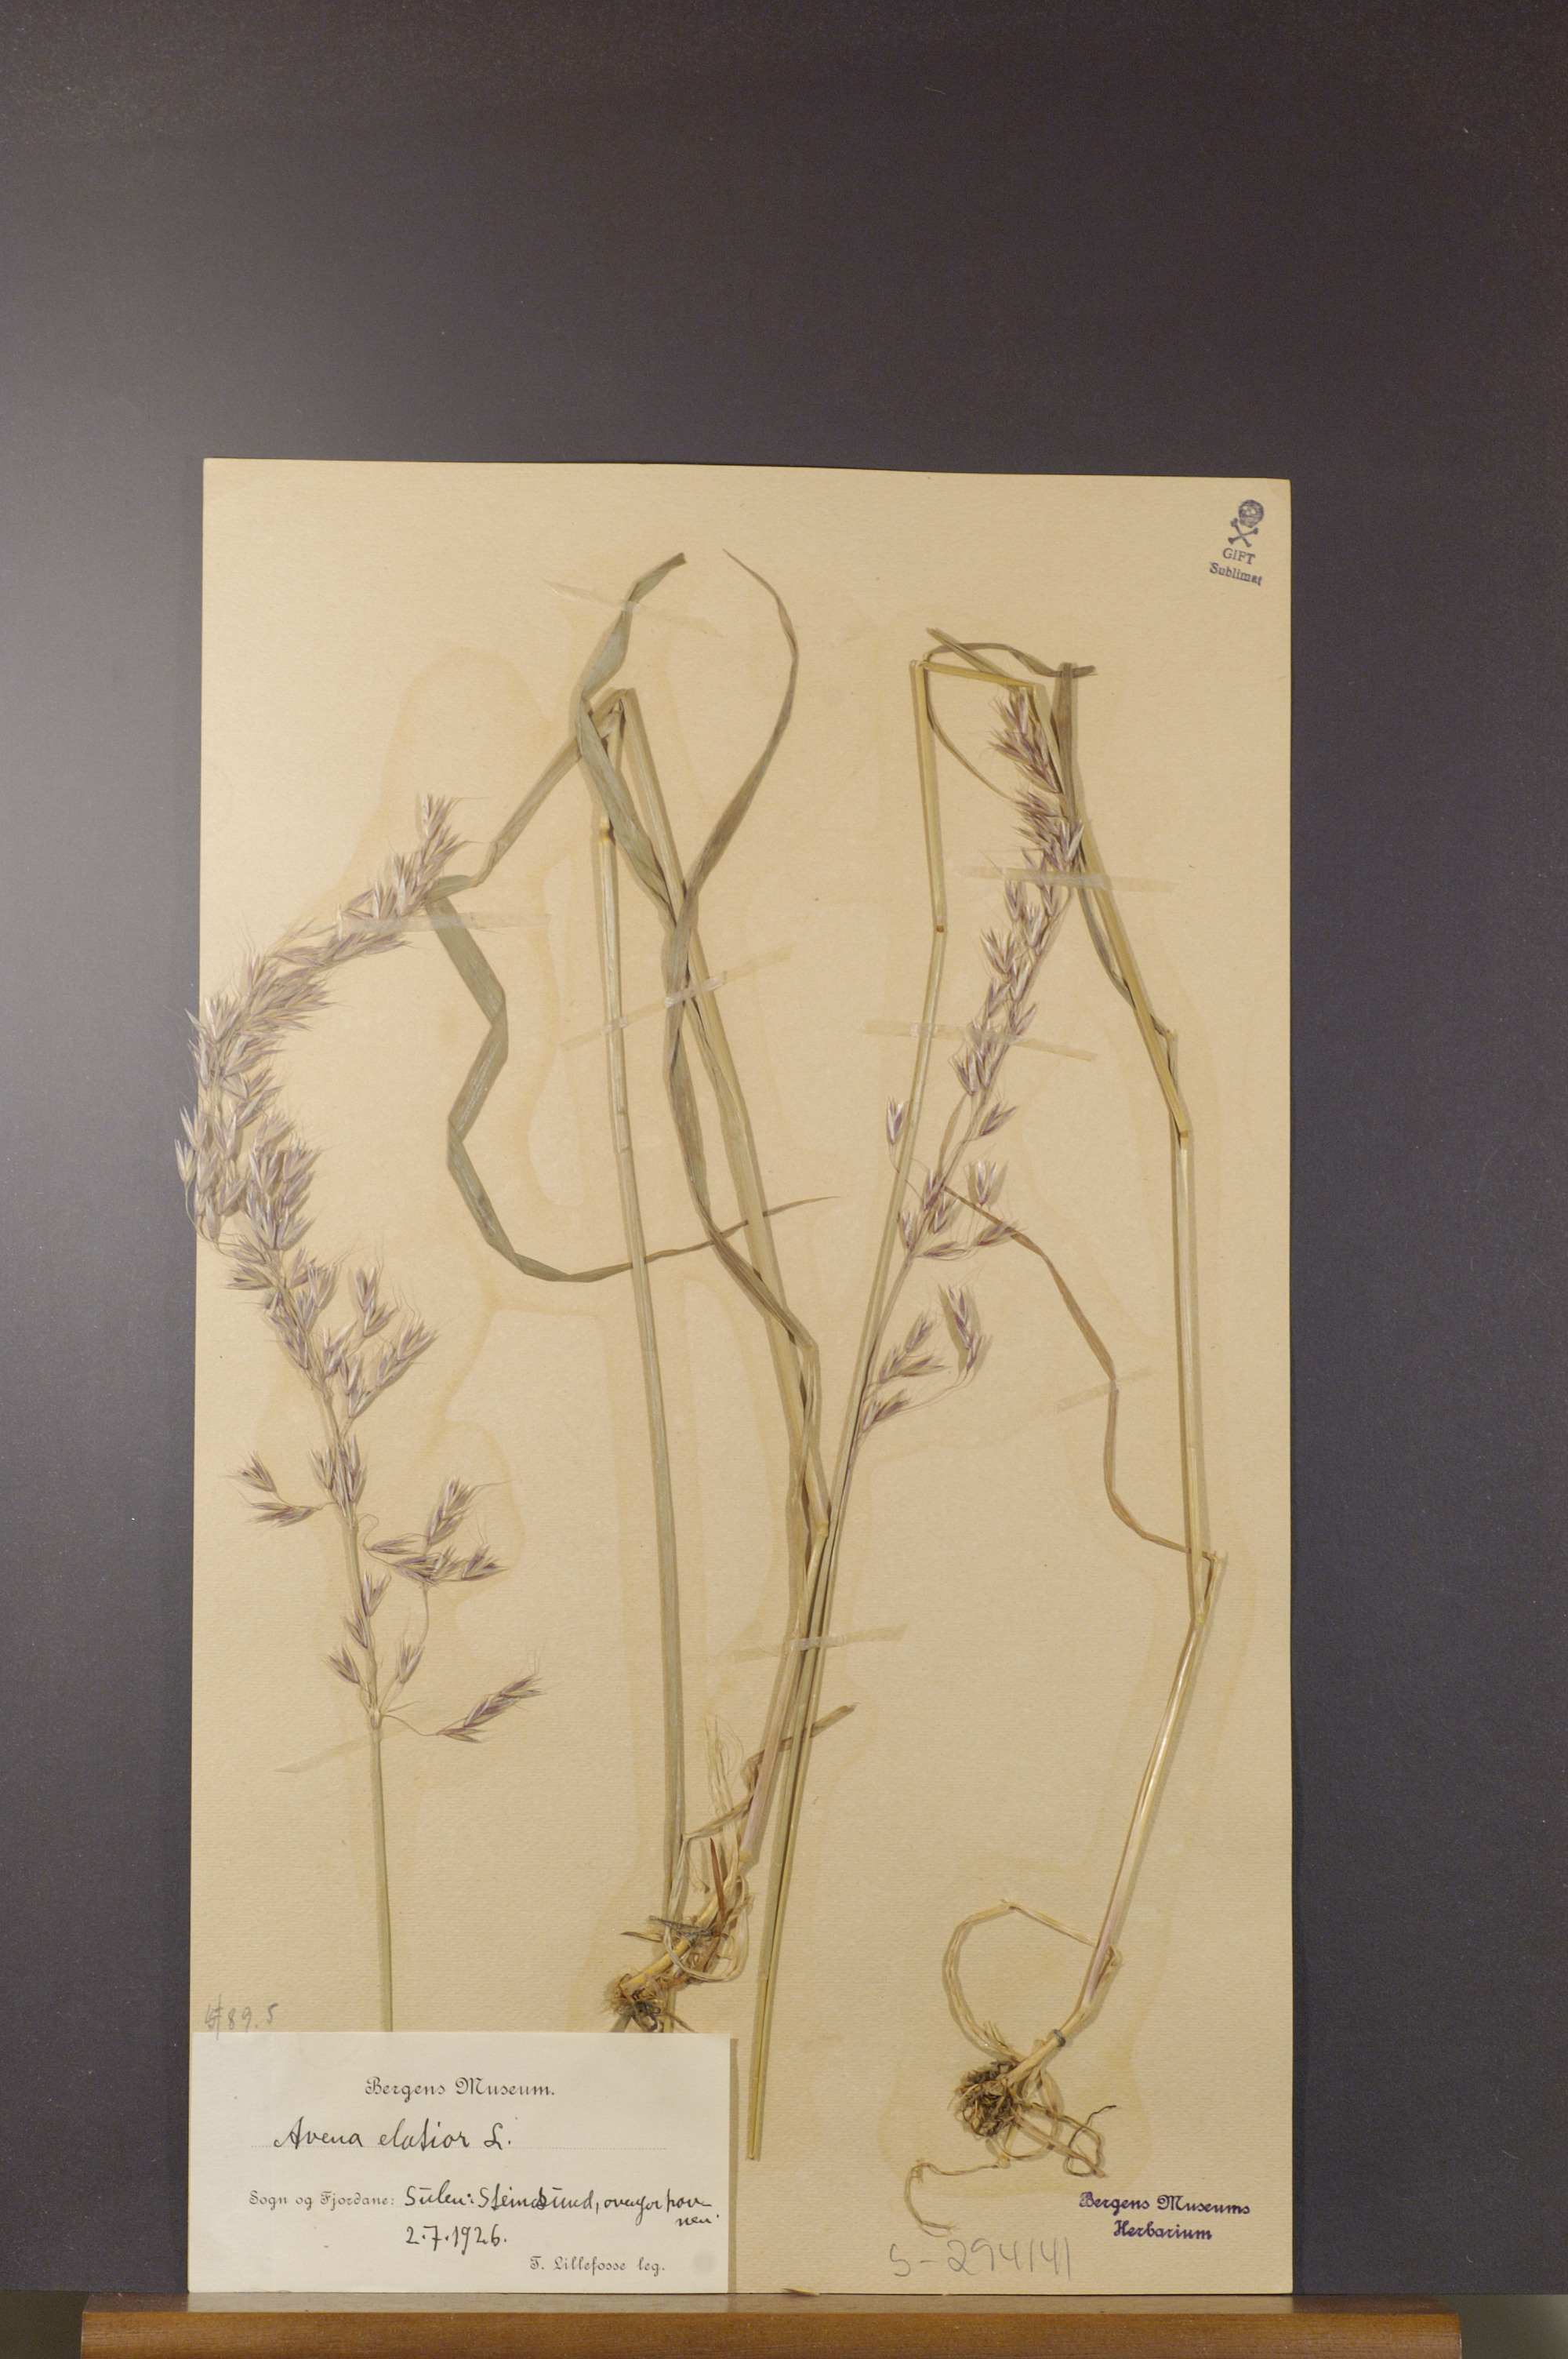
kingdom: Plantae
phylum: Tracheophyta
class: Liliopsida
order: Poales
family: Poaceae
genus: Arrhenatherum
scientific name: Arrhenatherum elatius
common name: Tall oatgrass
